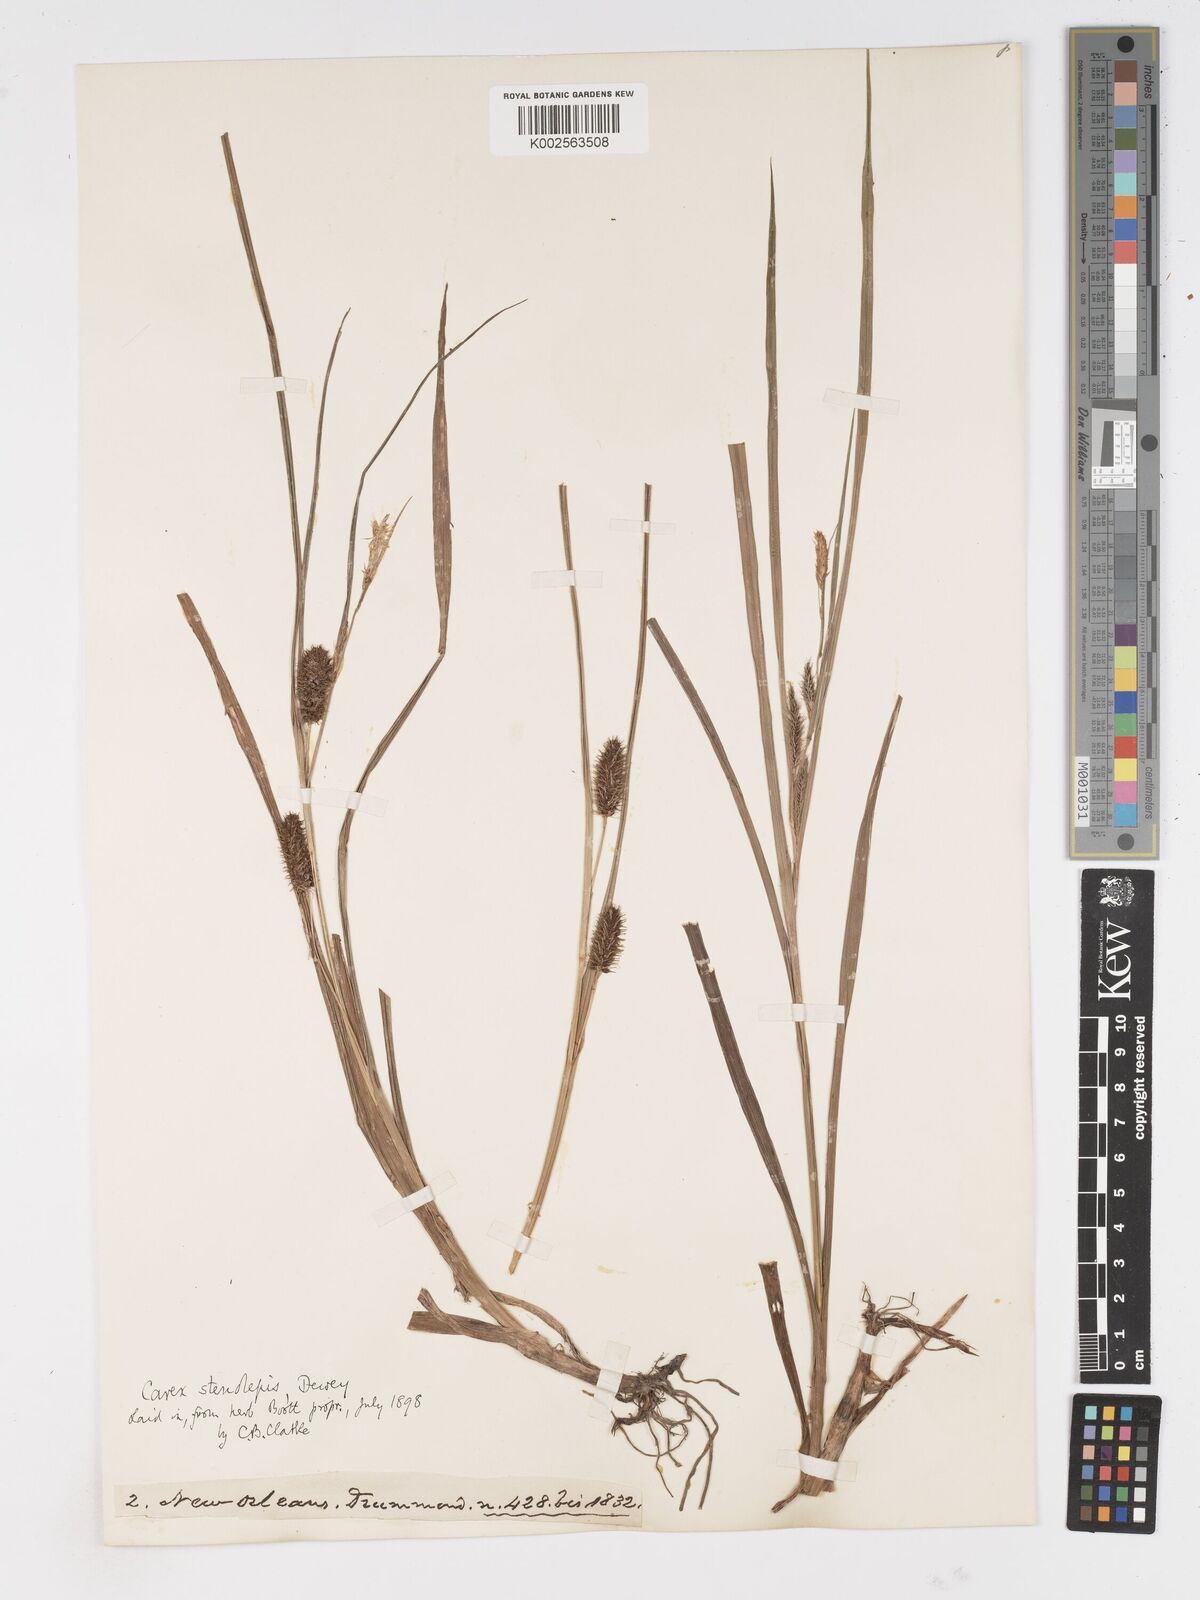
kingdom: Plantae
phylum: Tracheophyta
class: Liliopsida
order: Poales
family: Cyperaceae
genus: Carex
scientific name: Carex frankii
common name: Frank's sedge
